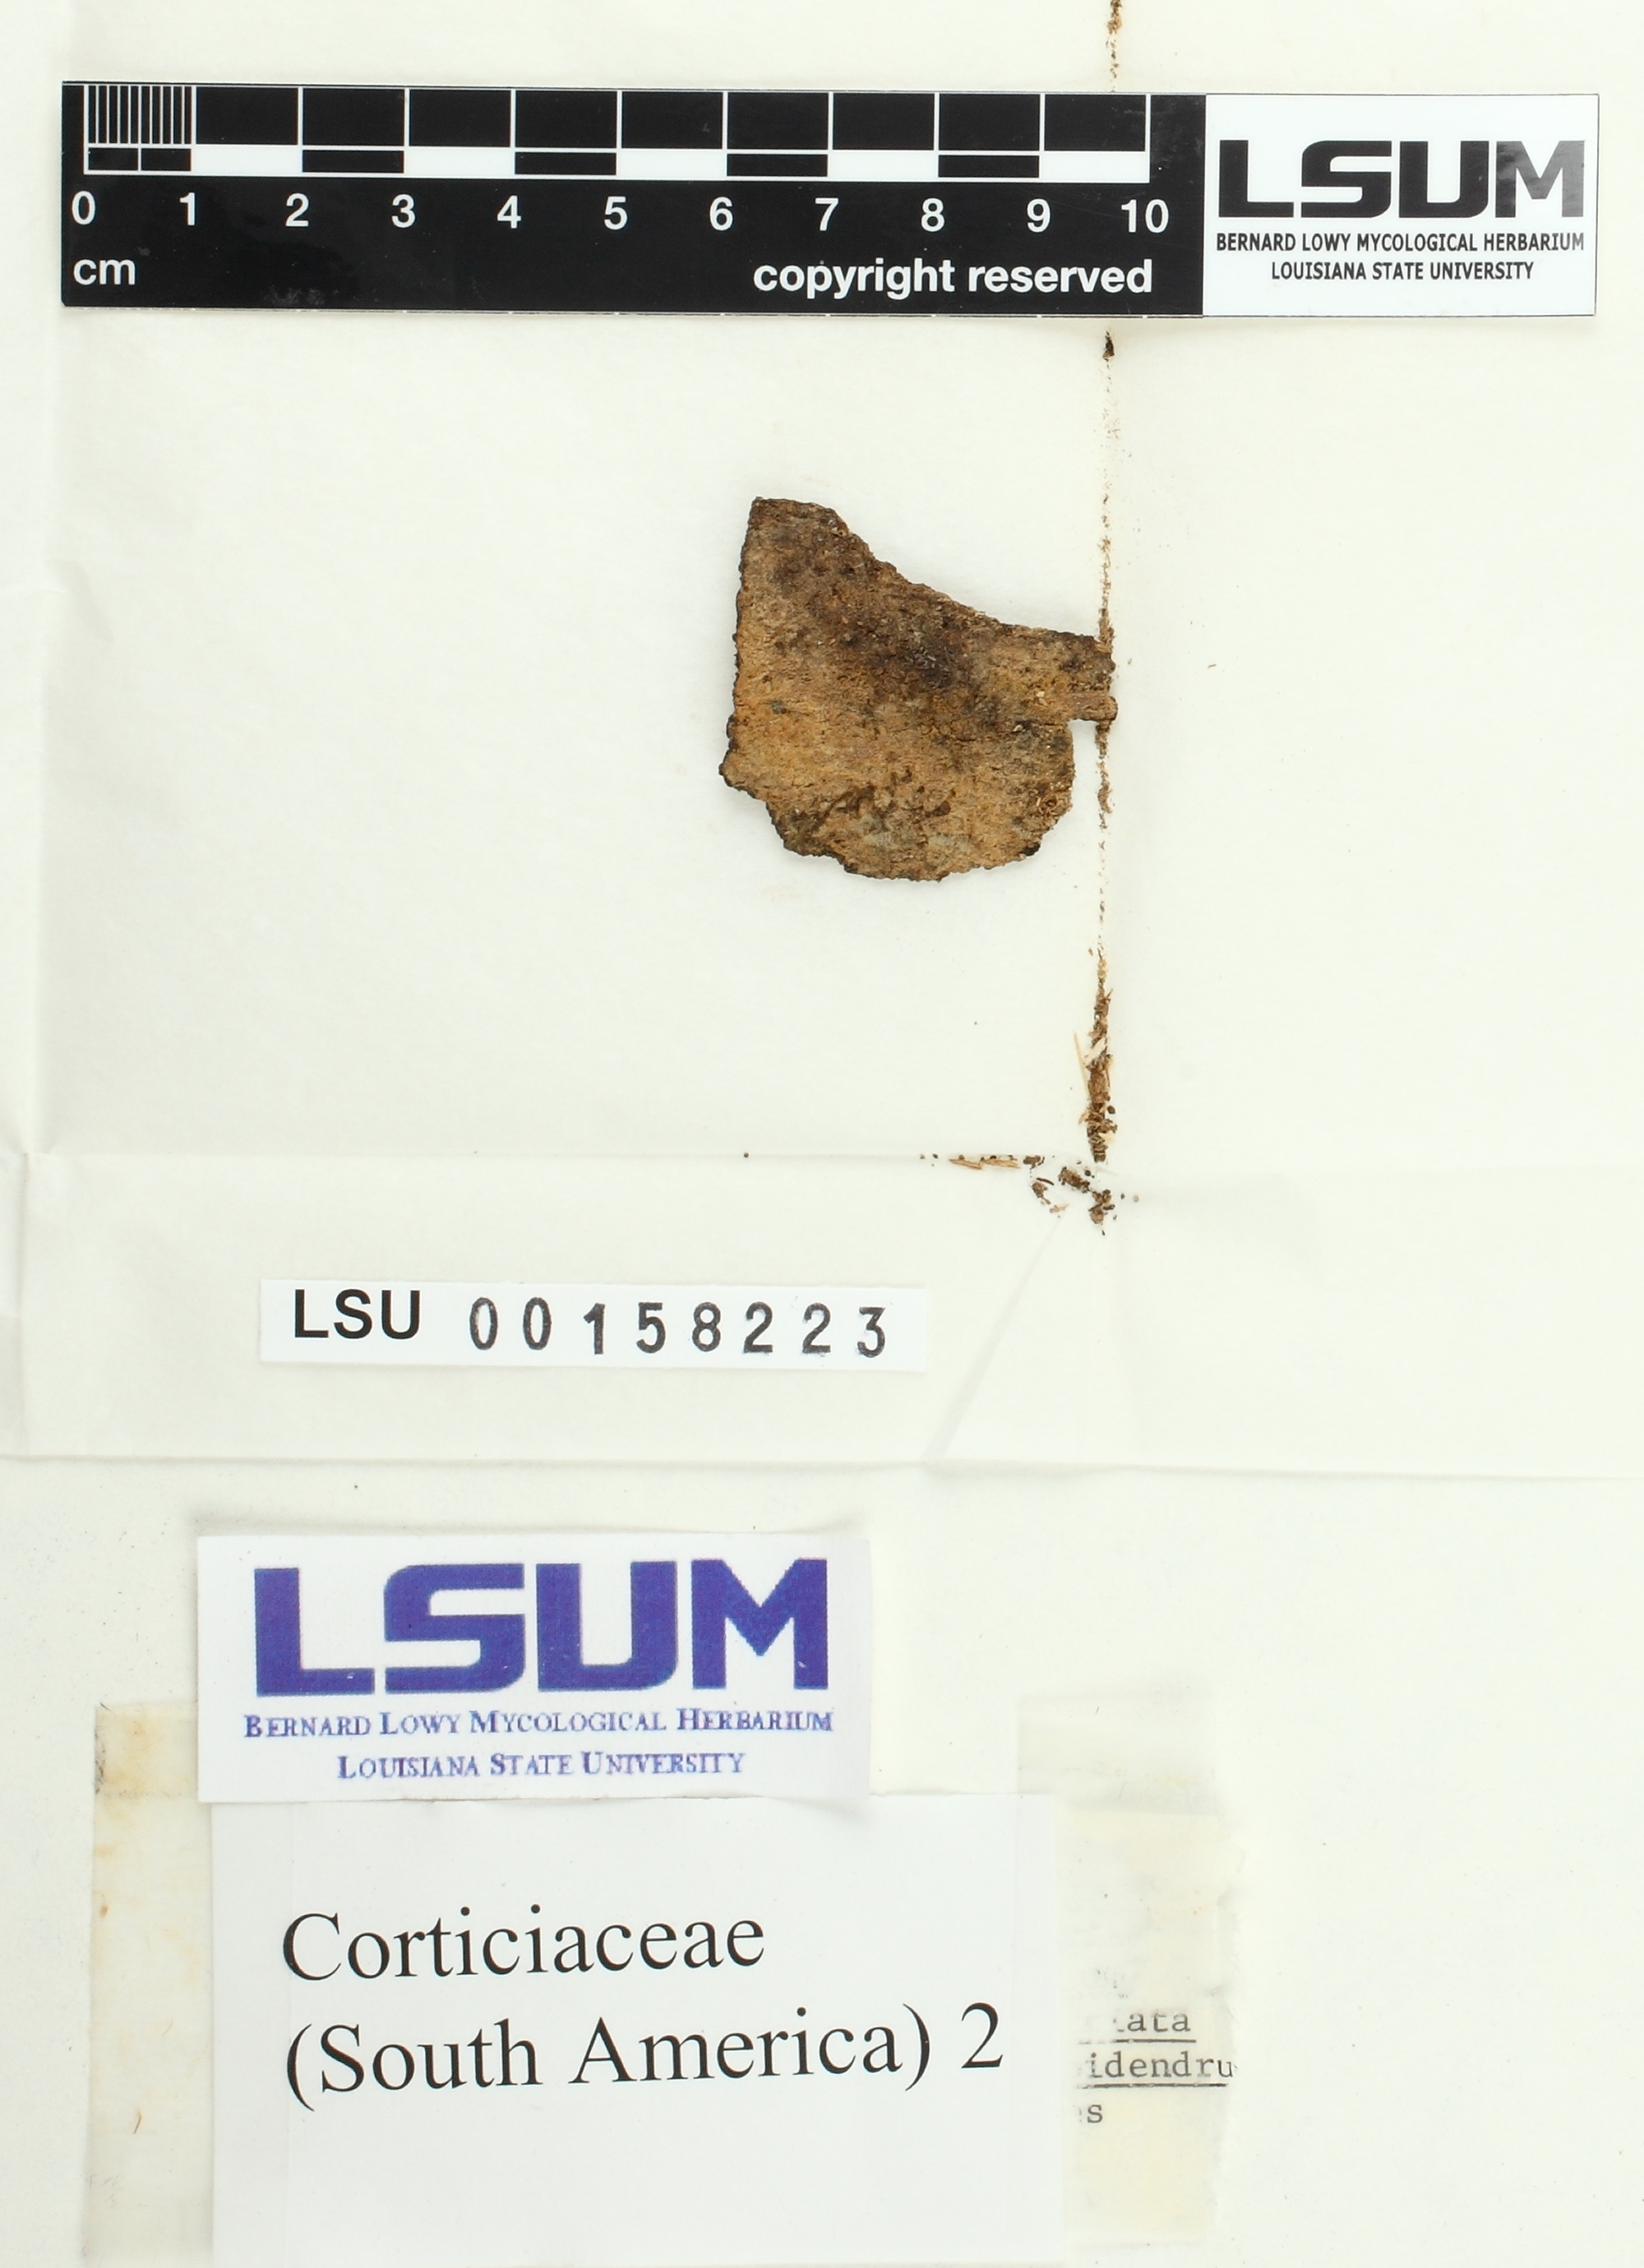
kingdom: Fungi
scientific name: Fungi
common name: Fungi
